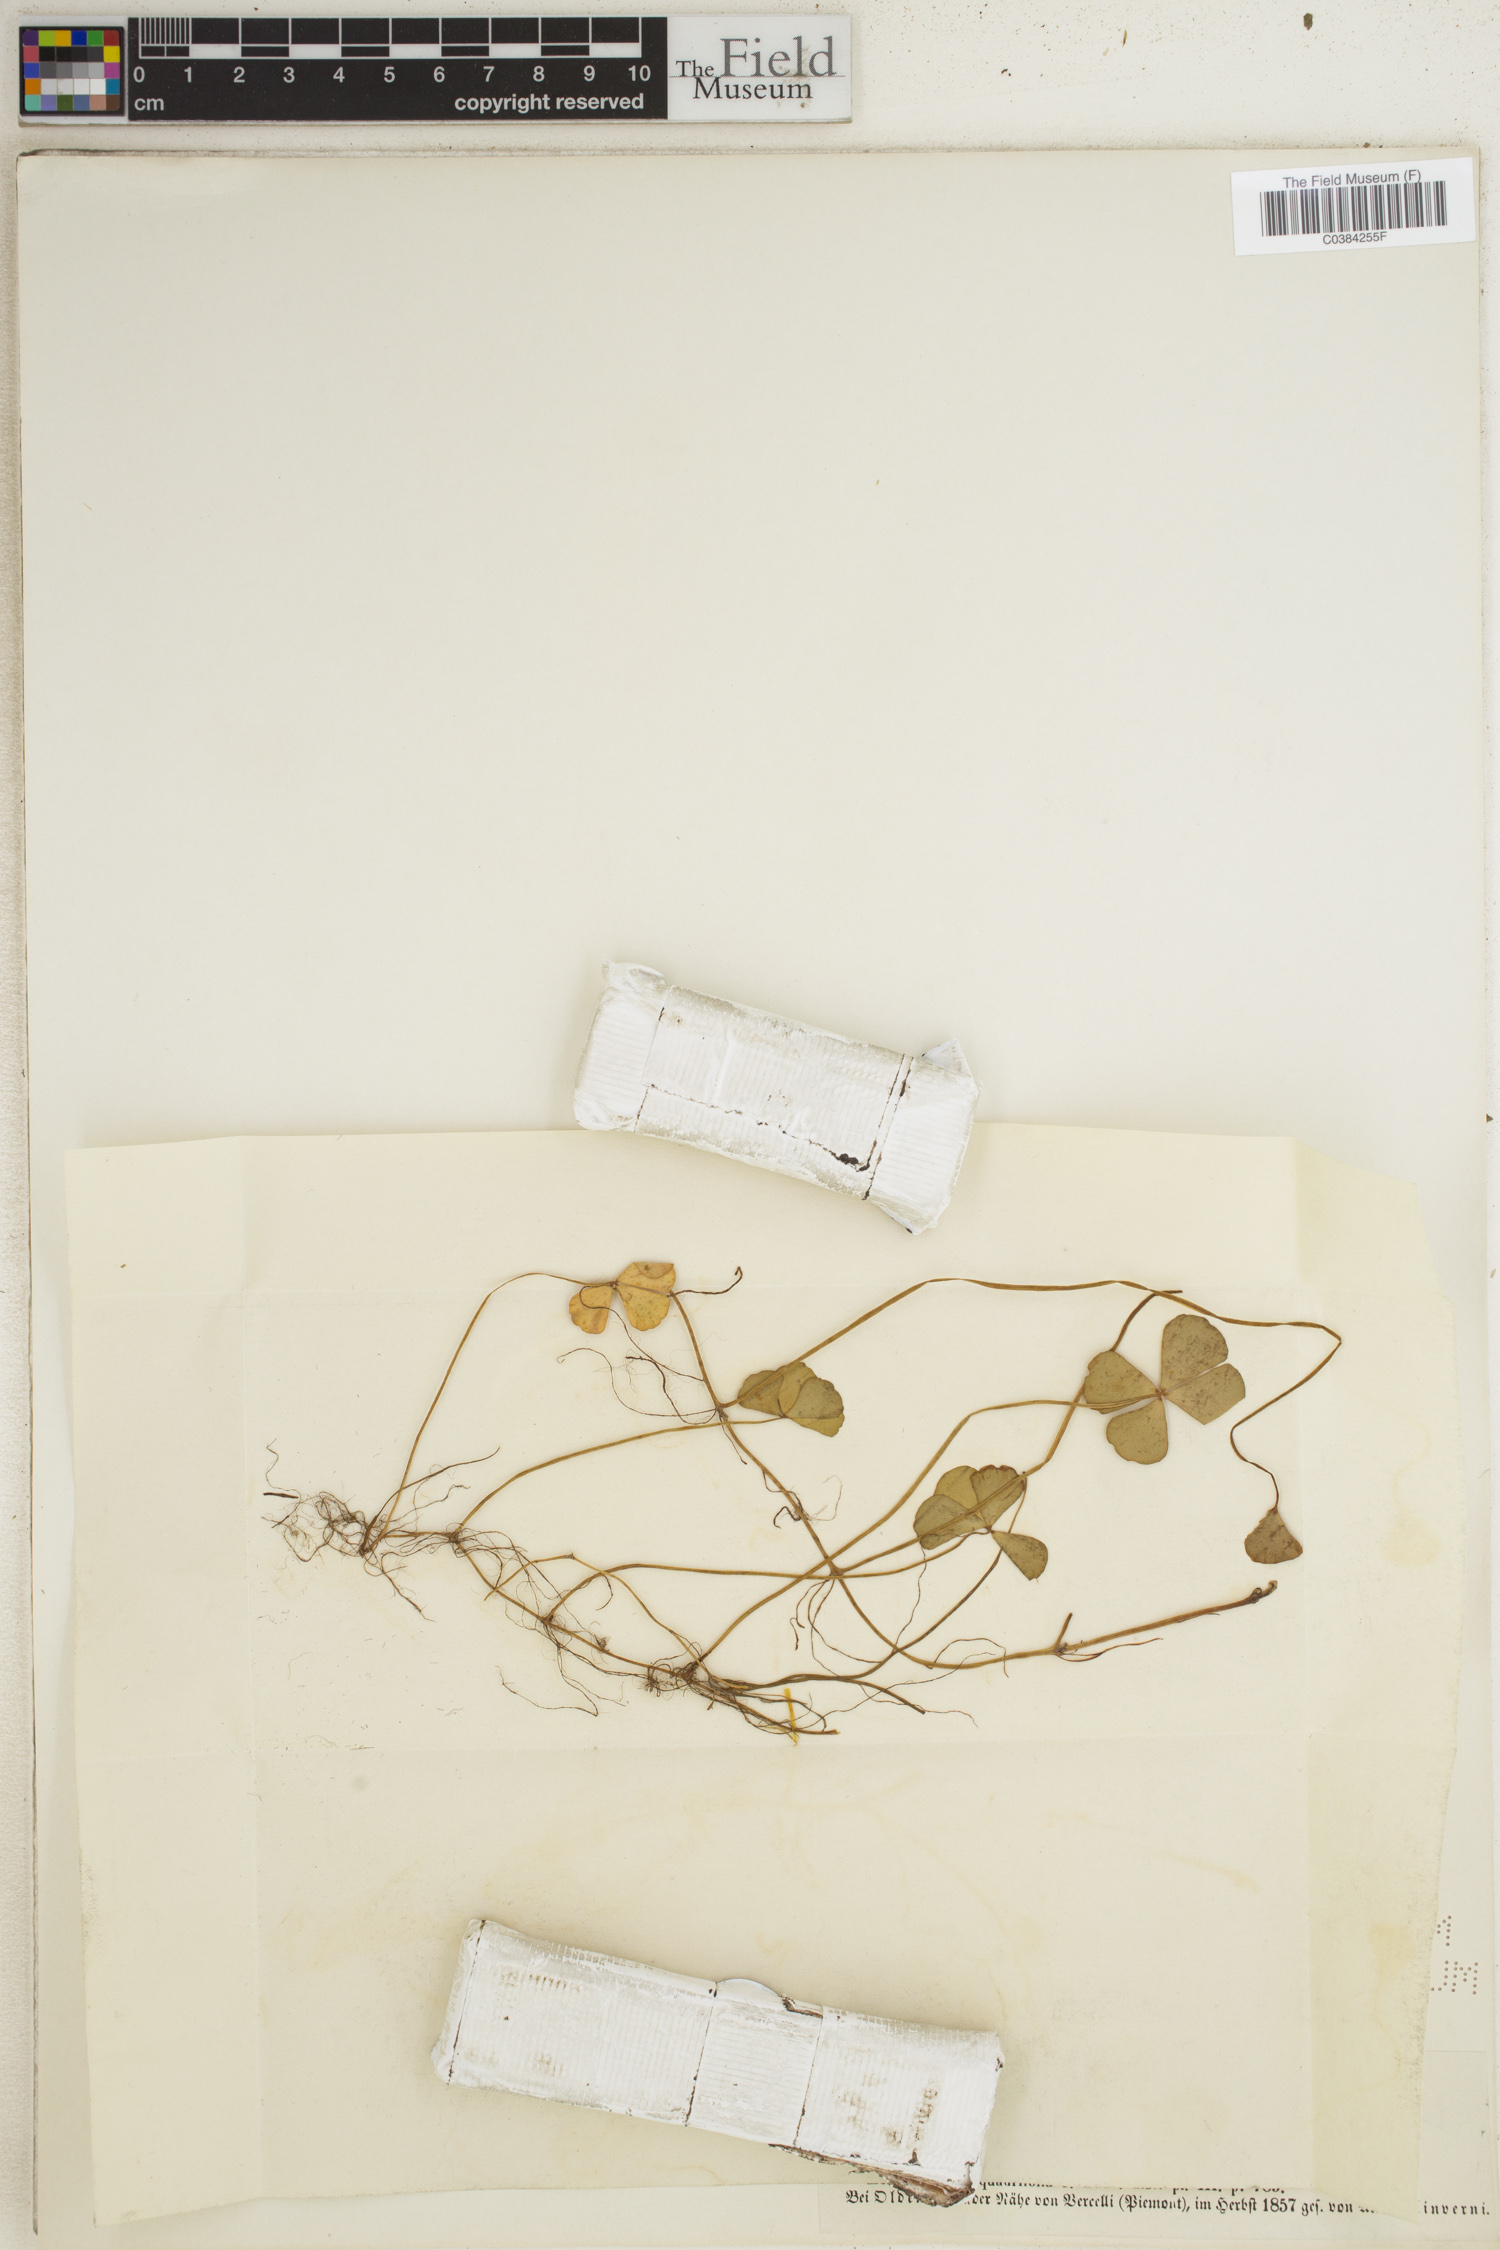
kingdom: Plantae
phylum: Tracheophyta
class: Polypodiopsida
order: Salviniales
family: Marsileaceae
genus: Marsilea
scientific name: Marsilea quadrifolia
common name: Water shamrock
